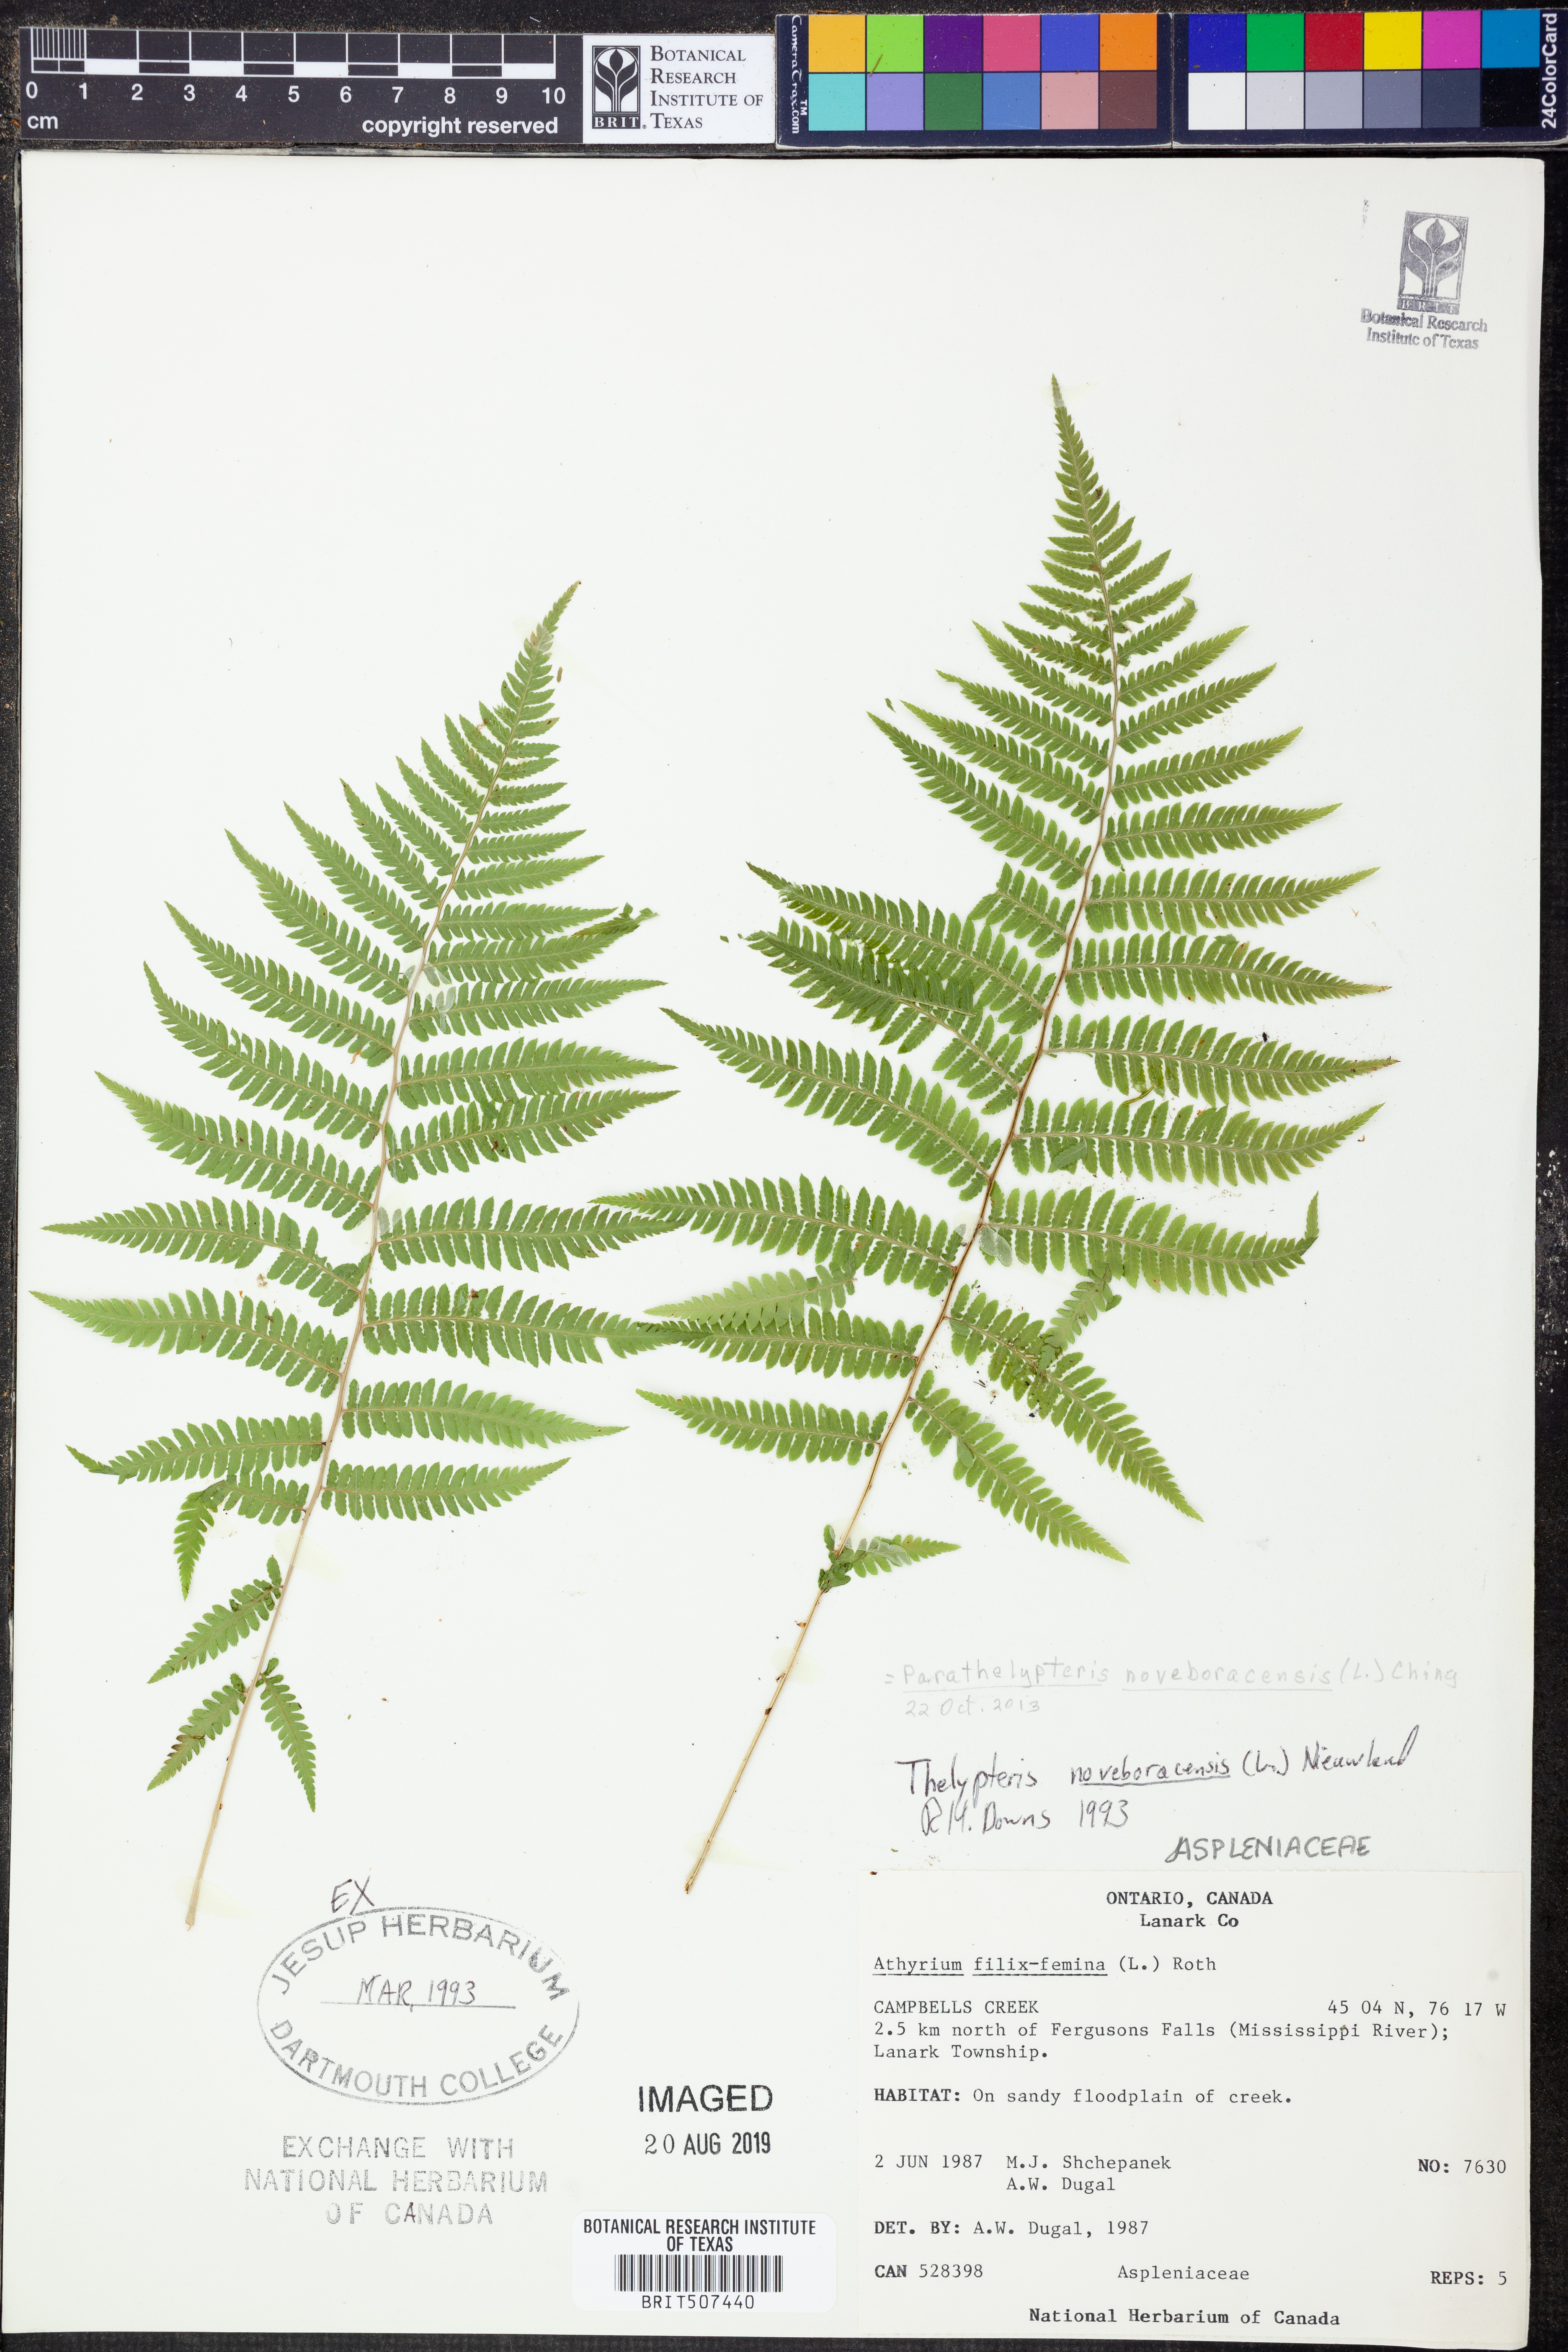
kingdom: Plantae
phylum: Tracheophyta
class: Polypodiopsida
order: Polypodiales
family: Thelypteridaceae
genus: Amauropelta
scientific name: Amauropelta noveboracensis
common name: New york fern
